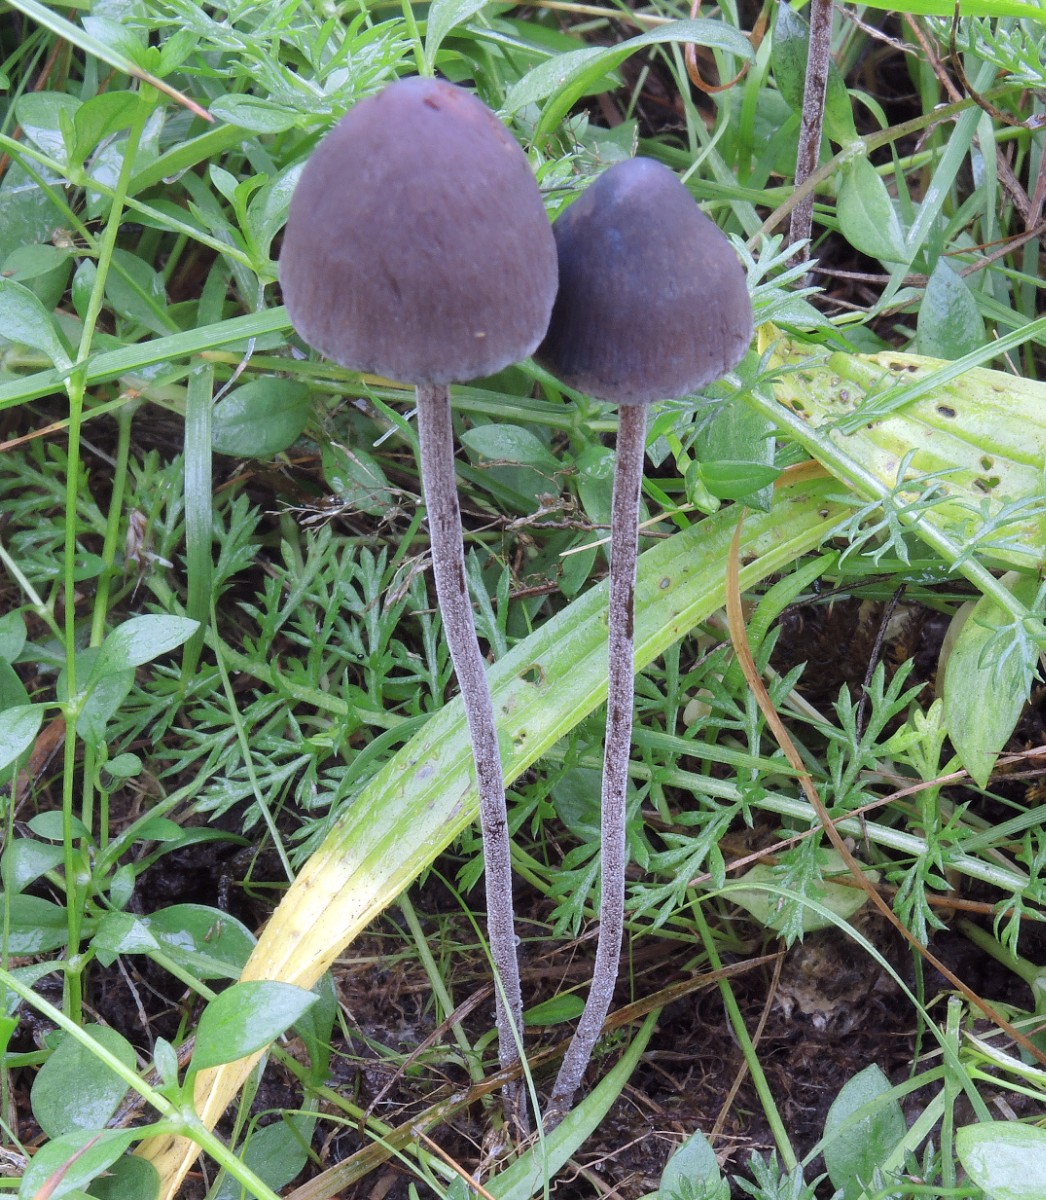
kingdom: Fungi
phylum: Basidiomycota
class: Agaricomycetes
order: Agaricales
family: Bolbitiaceae
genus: Panaeolus
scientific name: Panaeolus acuminatus
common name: høj glanshat
